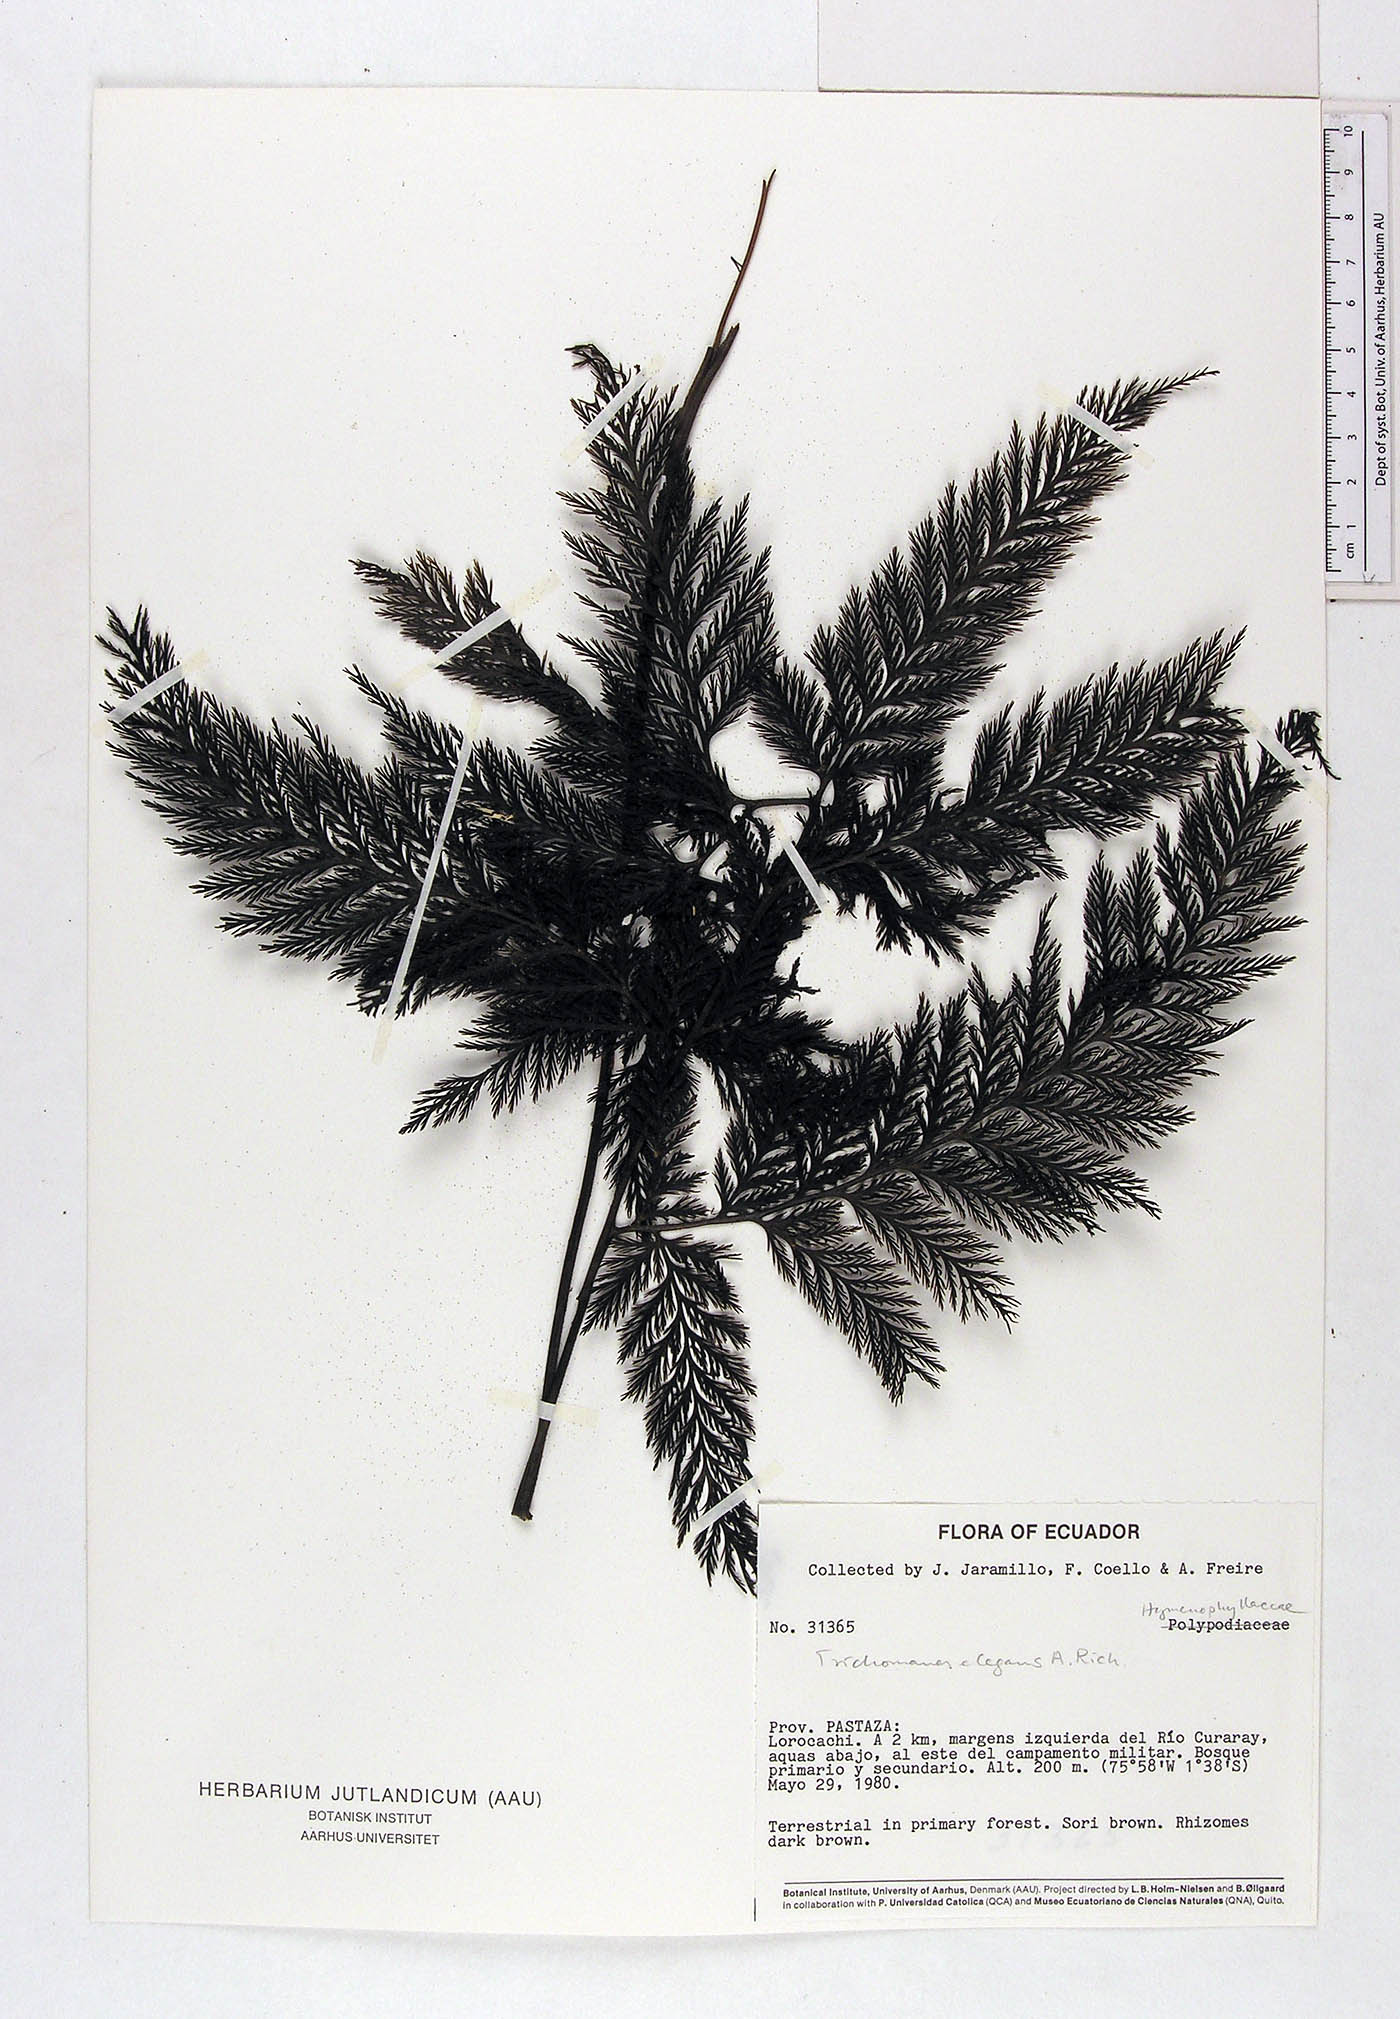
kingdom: Plantae
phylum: Tracheophyta
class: Polypodiopsida
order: Hymenophyllales
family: Hymenophyllaceae
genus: Trichomanes
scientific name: Trichomanes elegans
